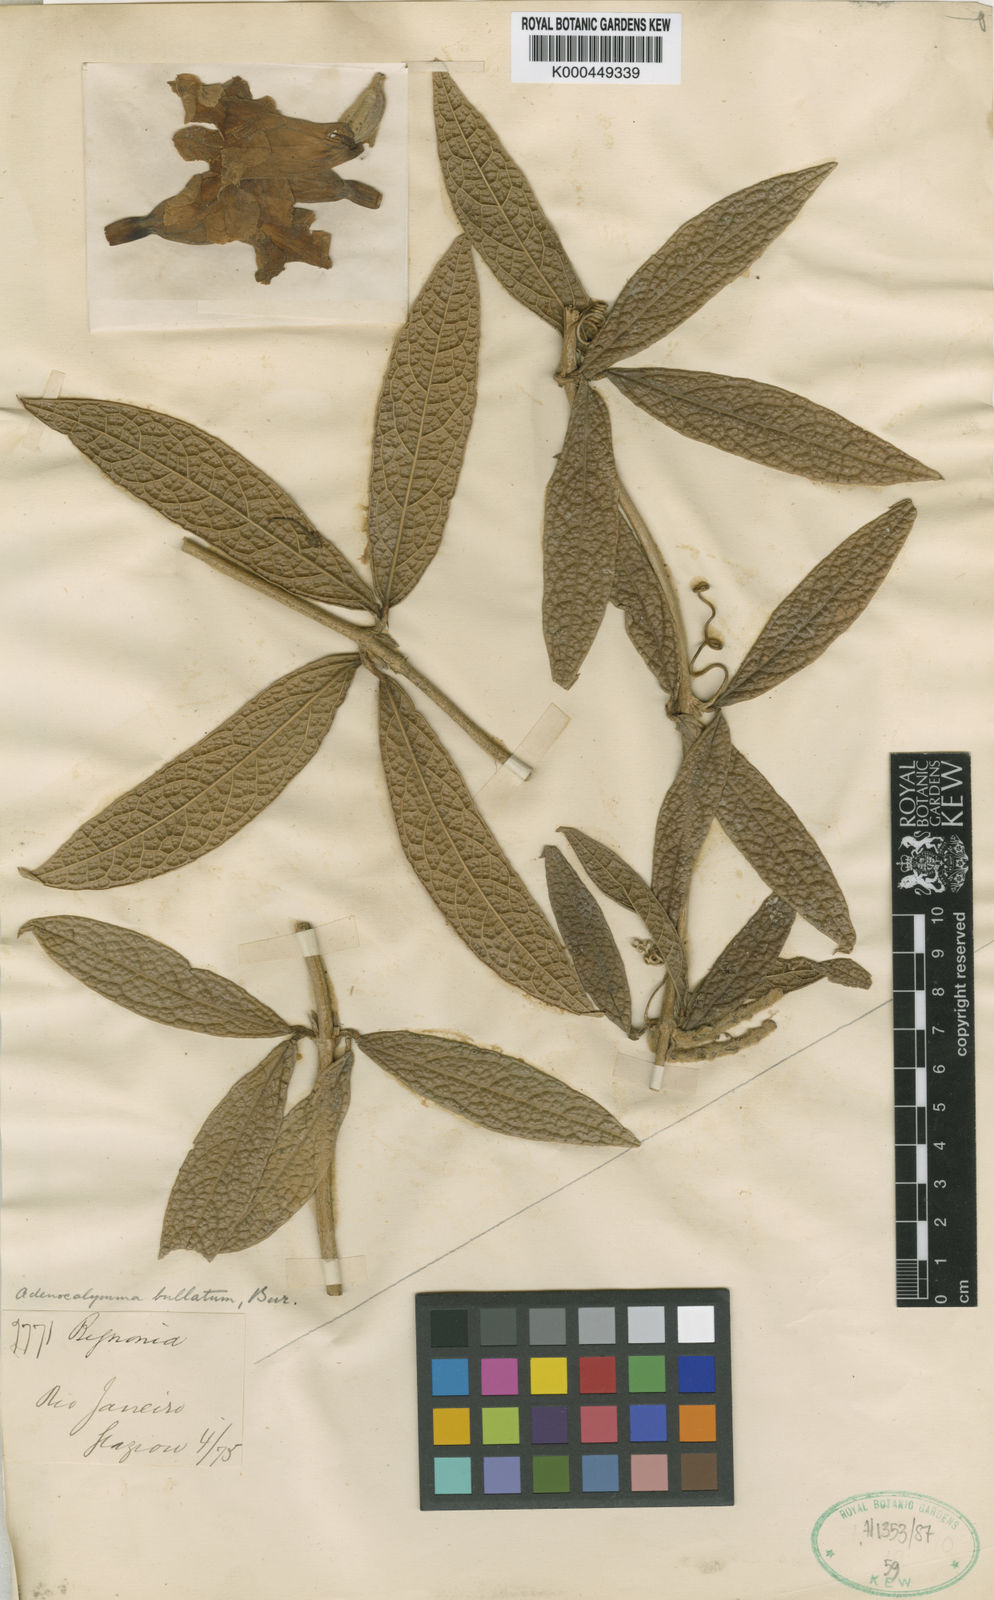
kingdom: Plantae
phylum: Tracheophyta
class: Magnoliopsida
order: Lamiales
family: Bignoniaceae
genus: Adenocalymma
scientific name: Adenocalymma bullatum
